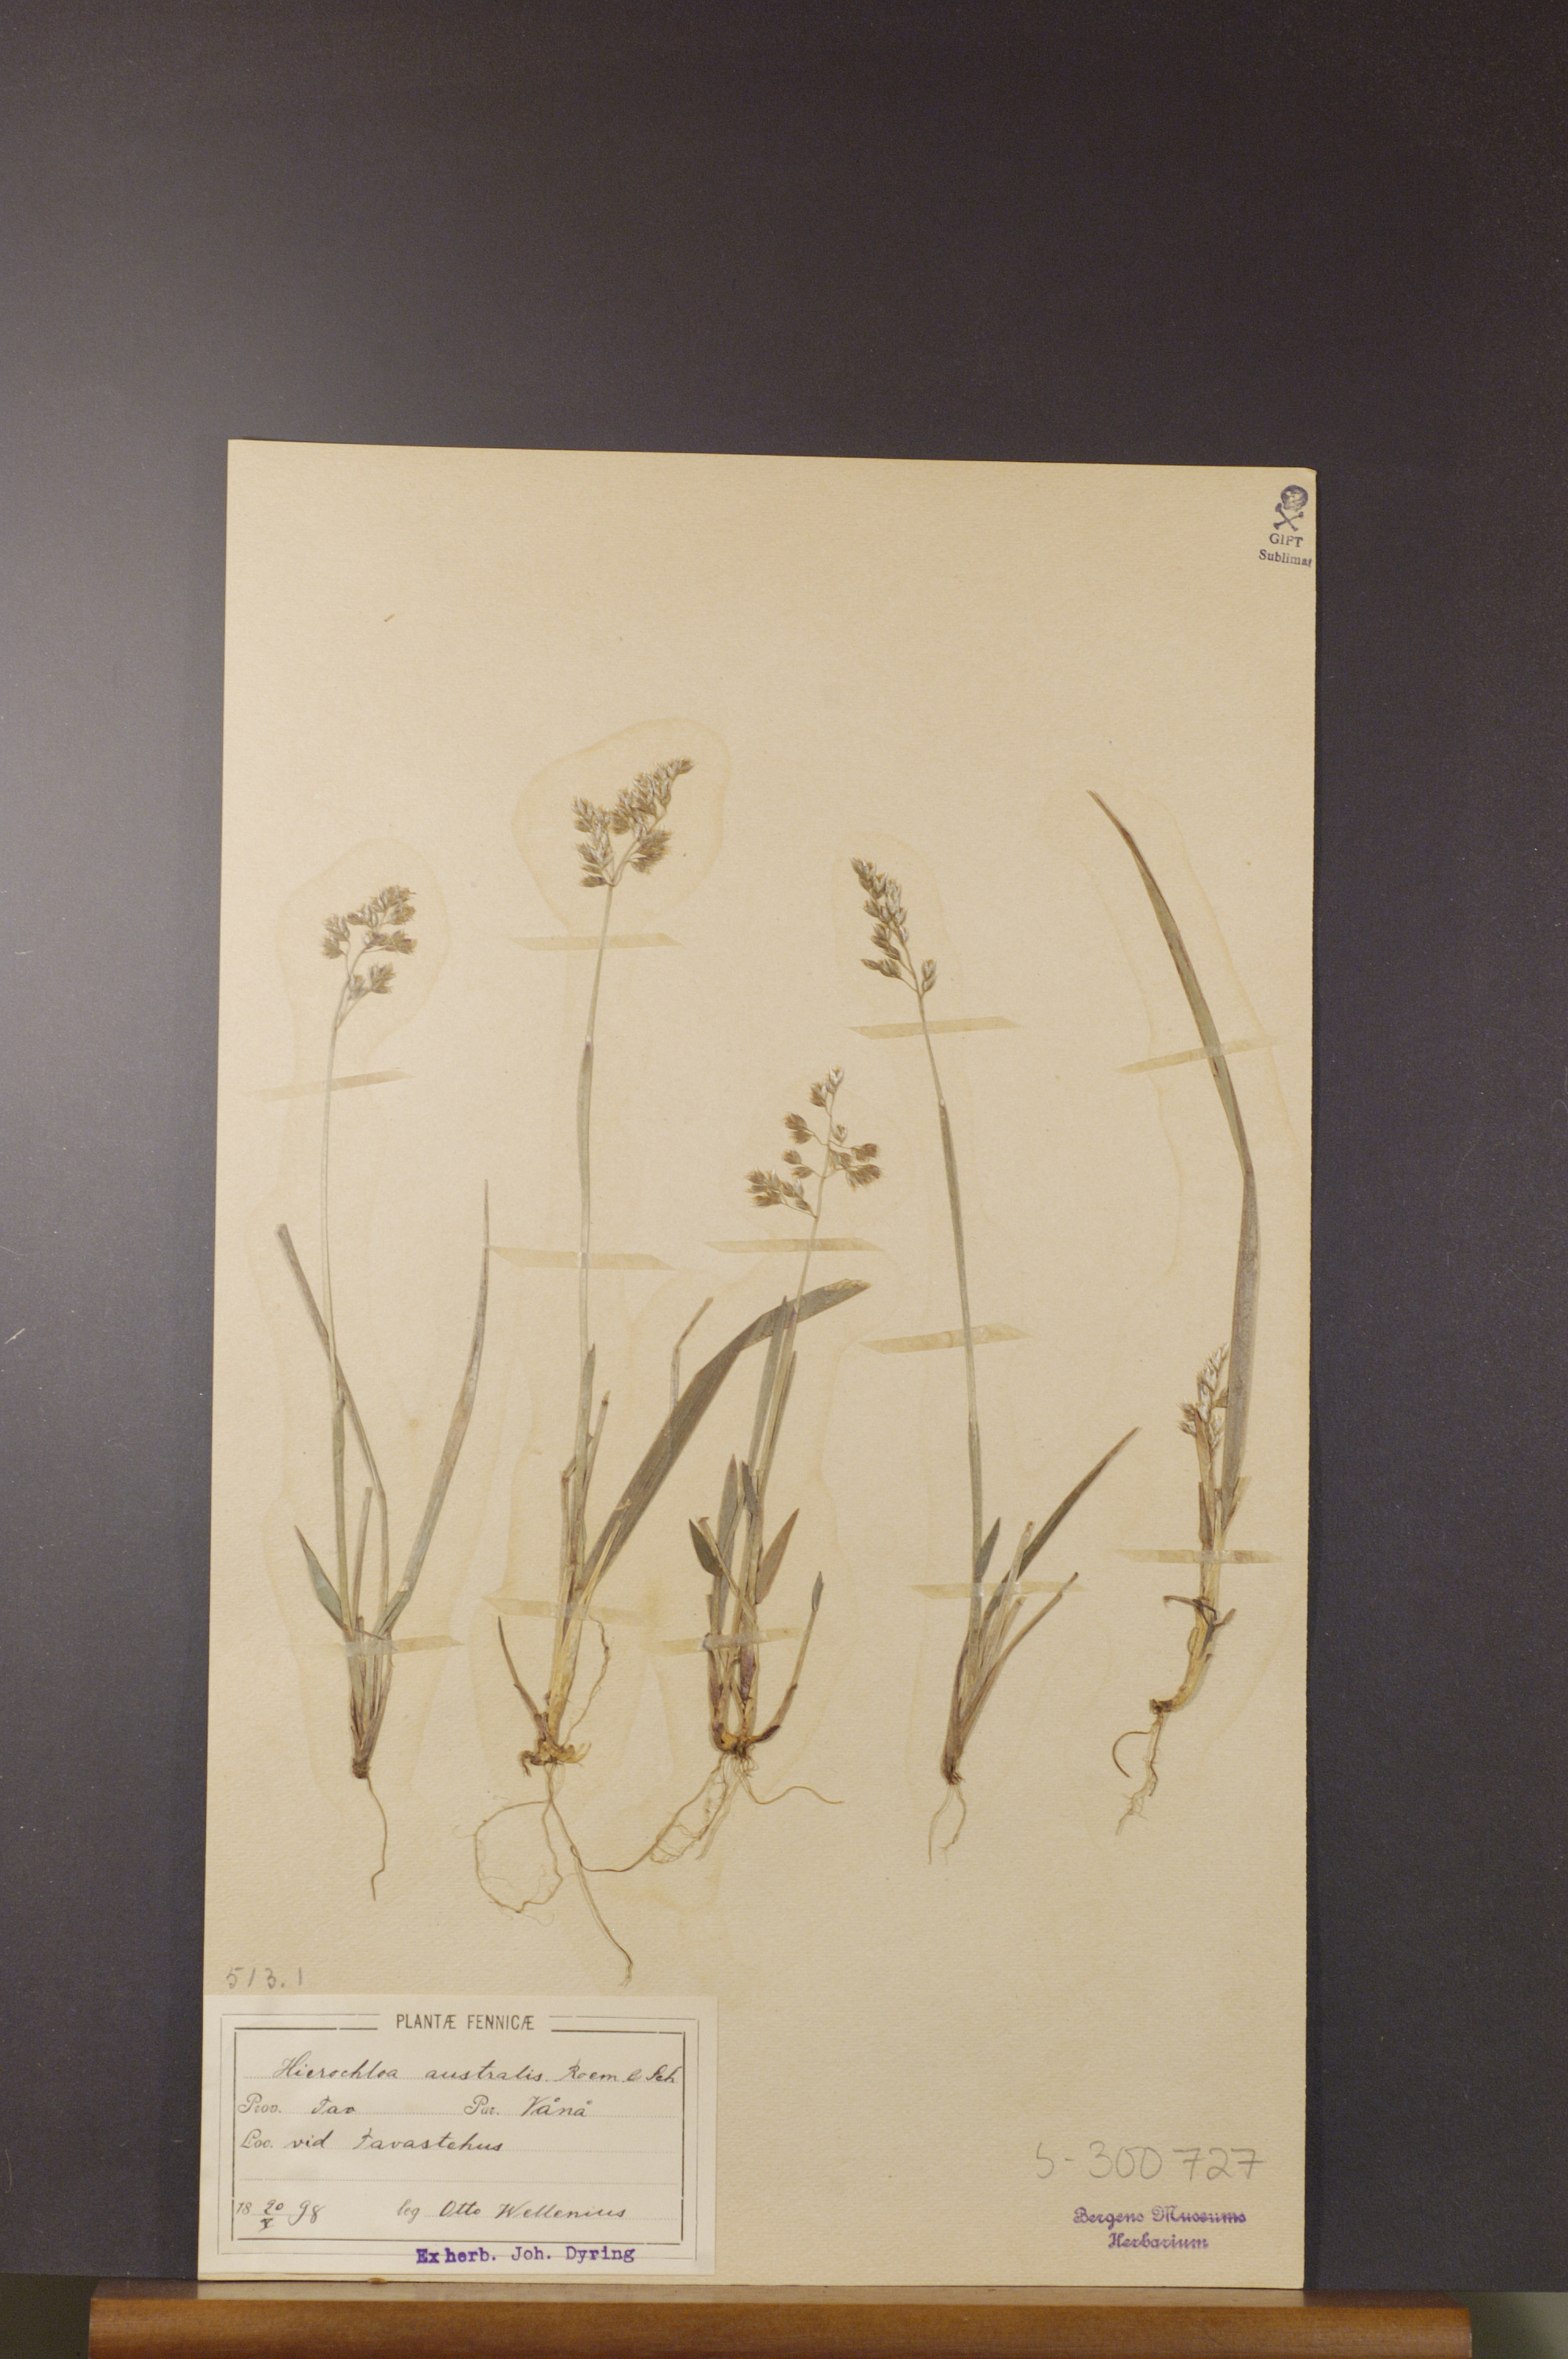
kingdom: Plantae
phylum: Tracheophyta
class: Liliopsida
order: Poales
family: Poaceae
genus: Anthoxanthum
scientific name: Anthoxanthum australe
